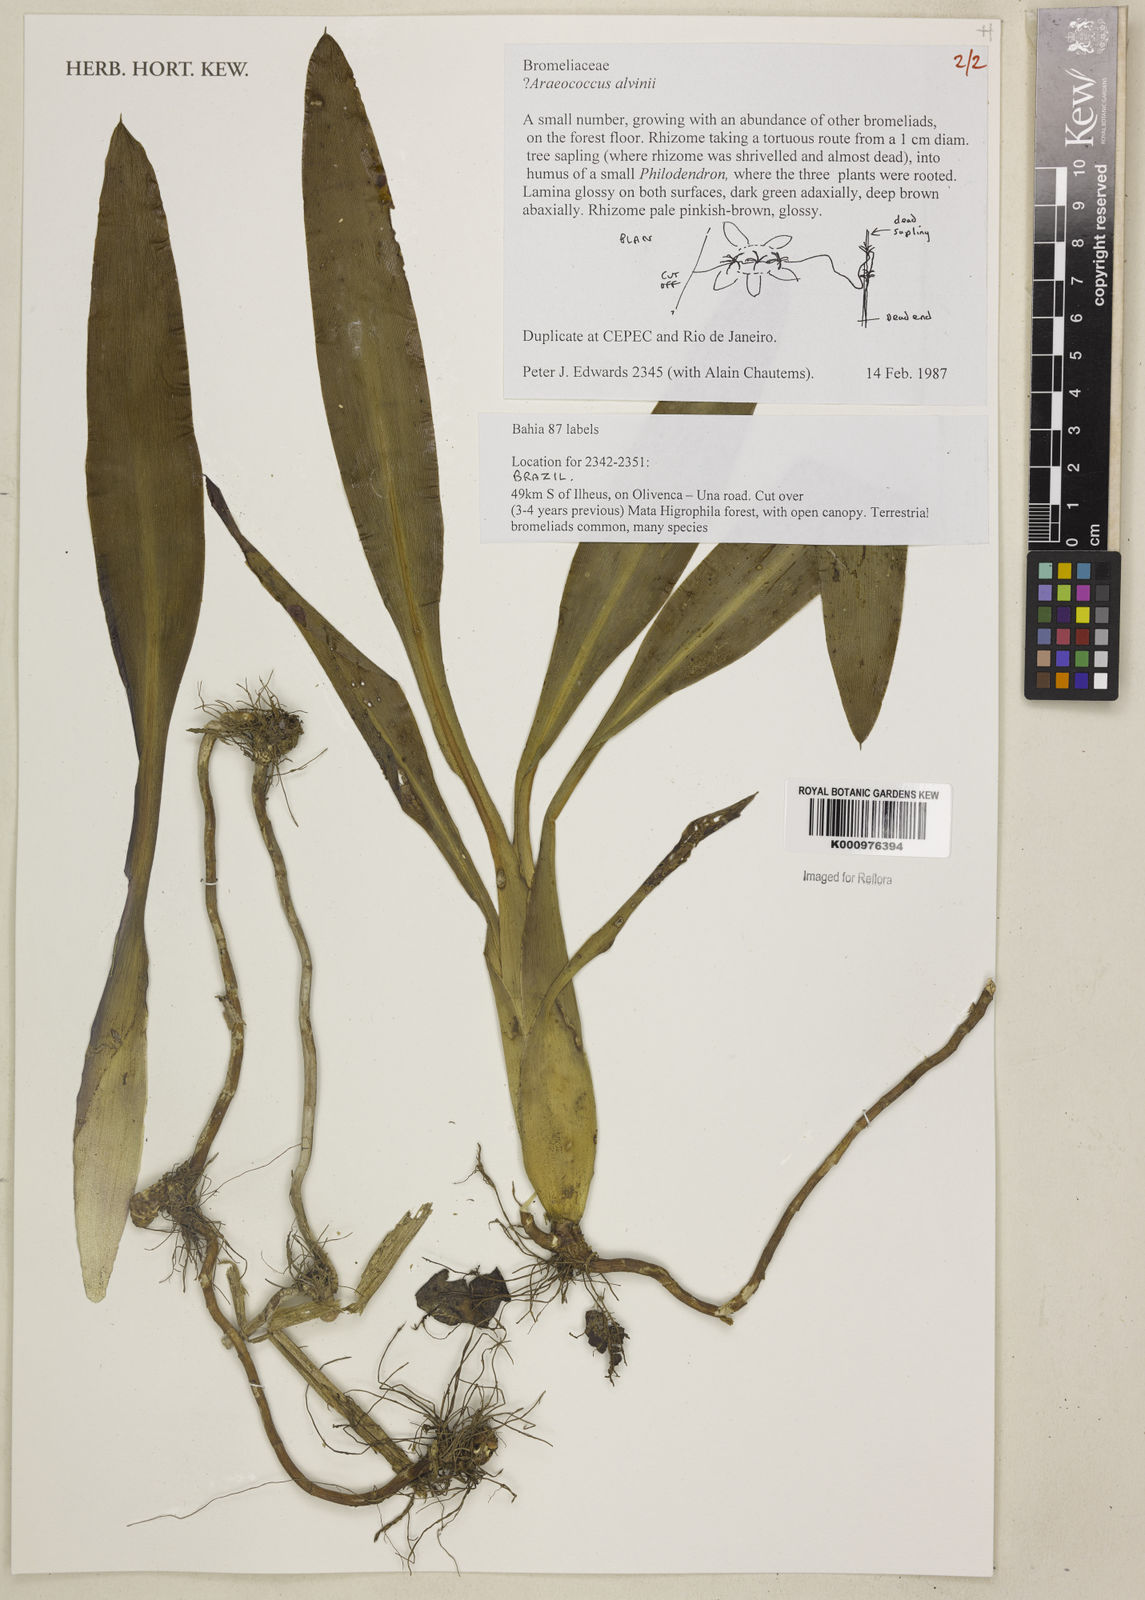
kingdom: Plantae
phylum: Tracheophyta
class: Liliopsida
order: Poales
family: Bromeliaceae
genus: Lymania
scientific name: Lymania alvimii
